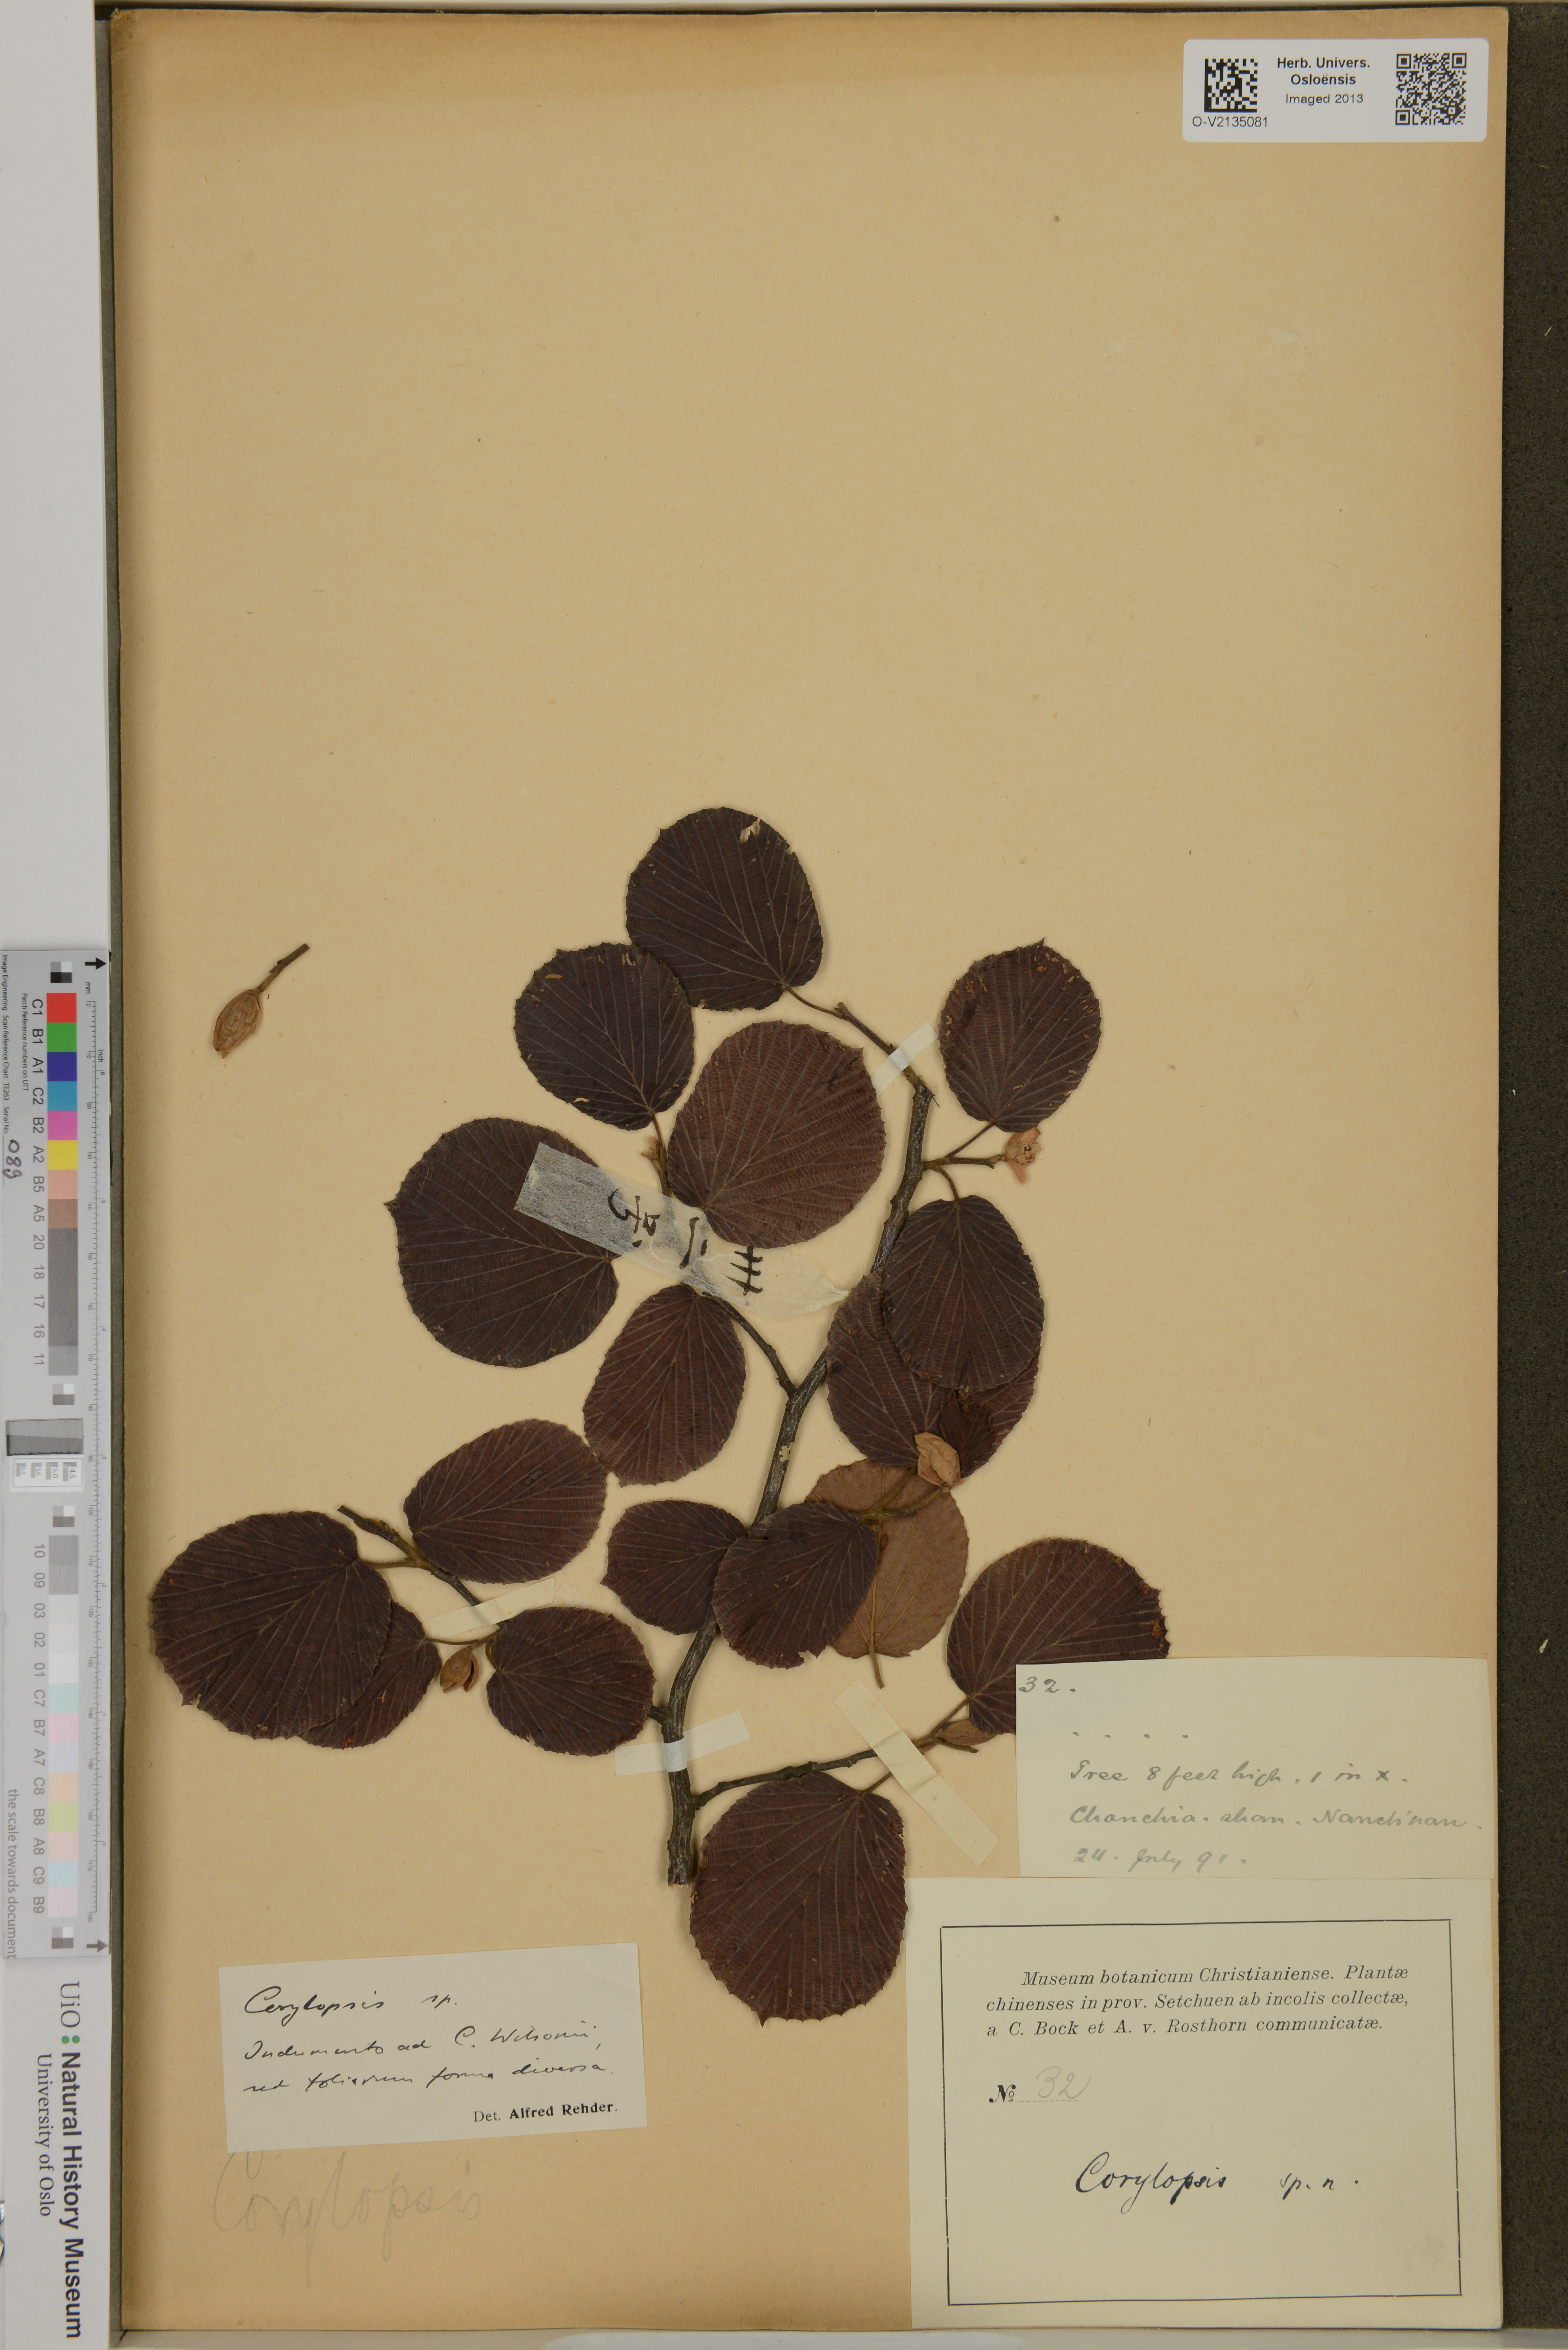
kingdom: Plantae
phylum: Tracheophyta
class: Magnoliopsida
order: Saxifragales
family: Hamamelidaceae
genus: Corylopsis
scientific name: Corylopsis
